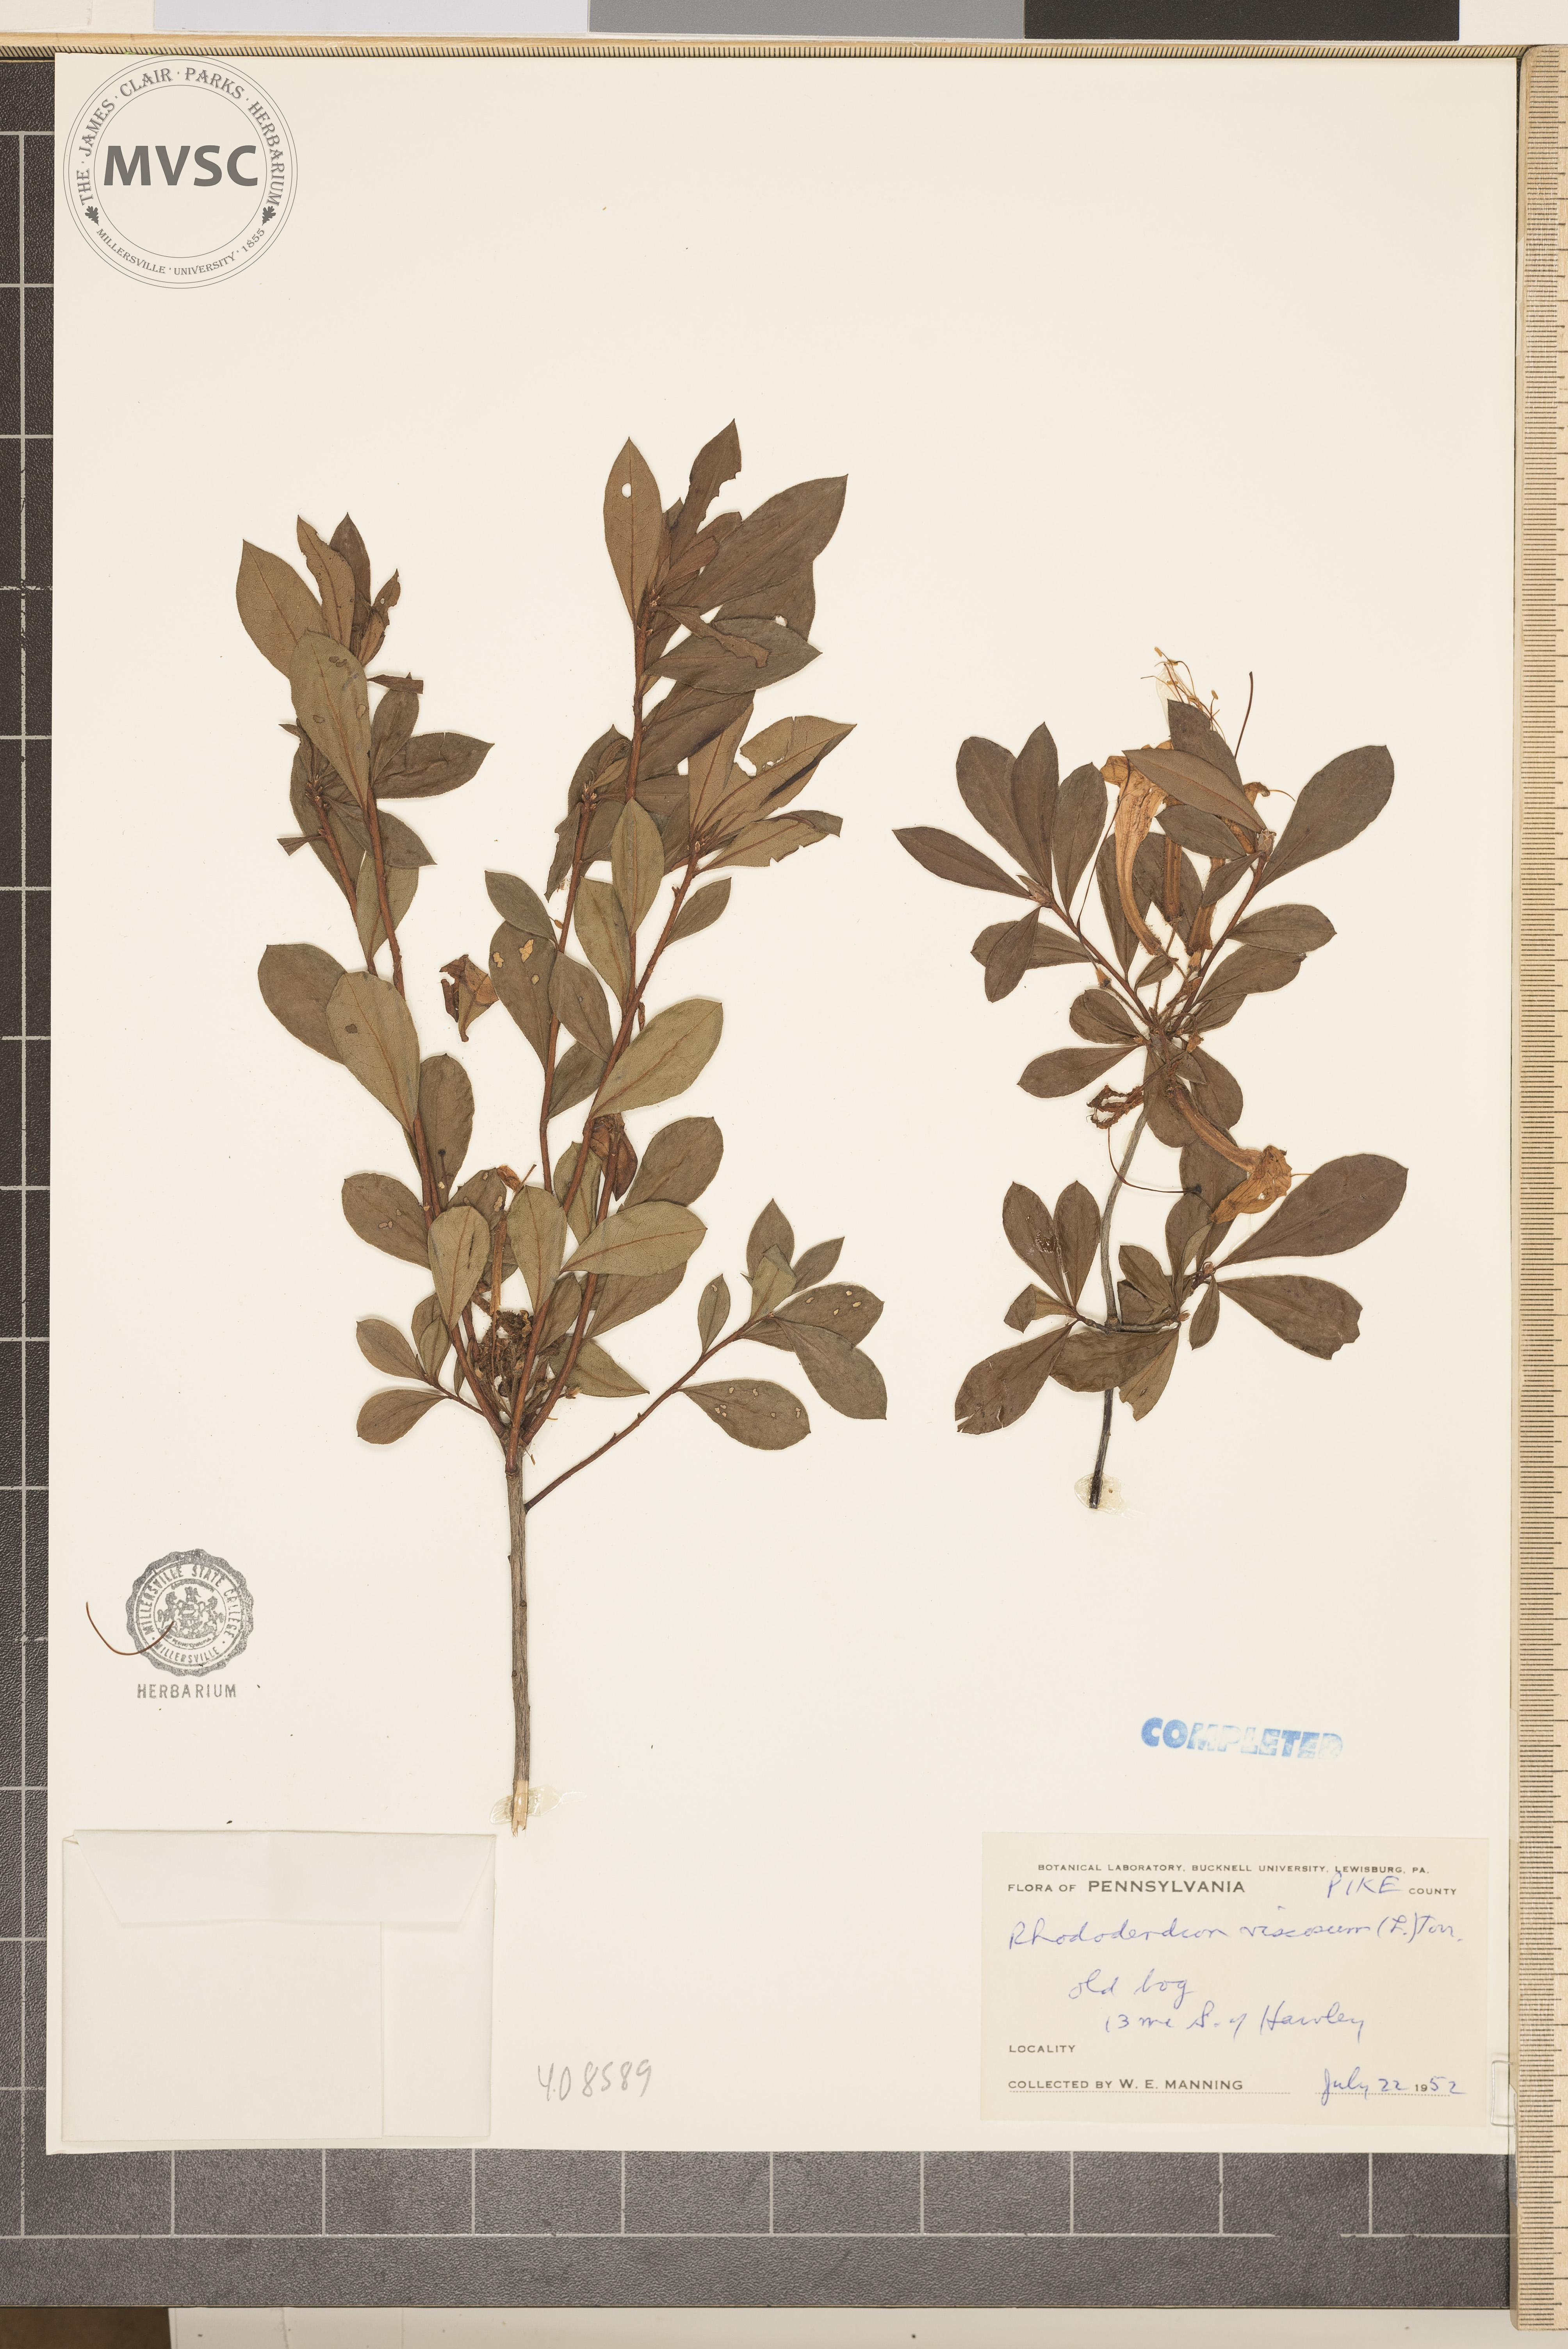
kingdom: Plantae
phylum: Tracheophyta
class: Magnoliopsida
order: Ericales
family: Ericaceae
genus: Rhododendron
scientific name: Rhododendron viscosum
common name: Clammy azalea
